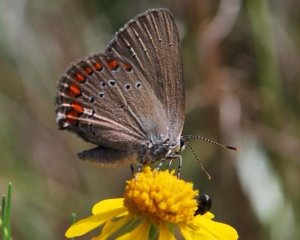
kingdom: Animalia
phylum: Arthropoda
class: Insecta
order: Lepidoptera
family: Lycaenidae
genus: Harkenclenus
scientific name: Harkenclenus titus
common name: Coral Hairstreak
